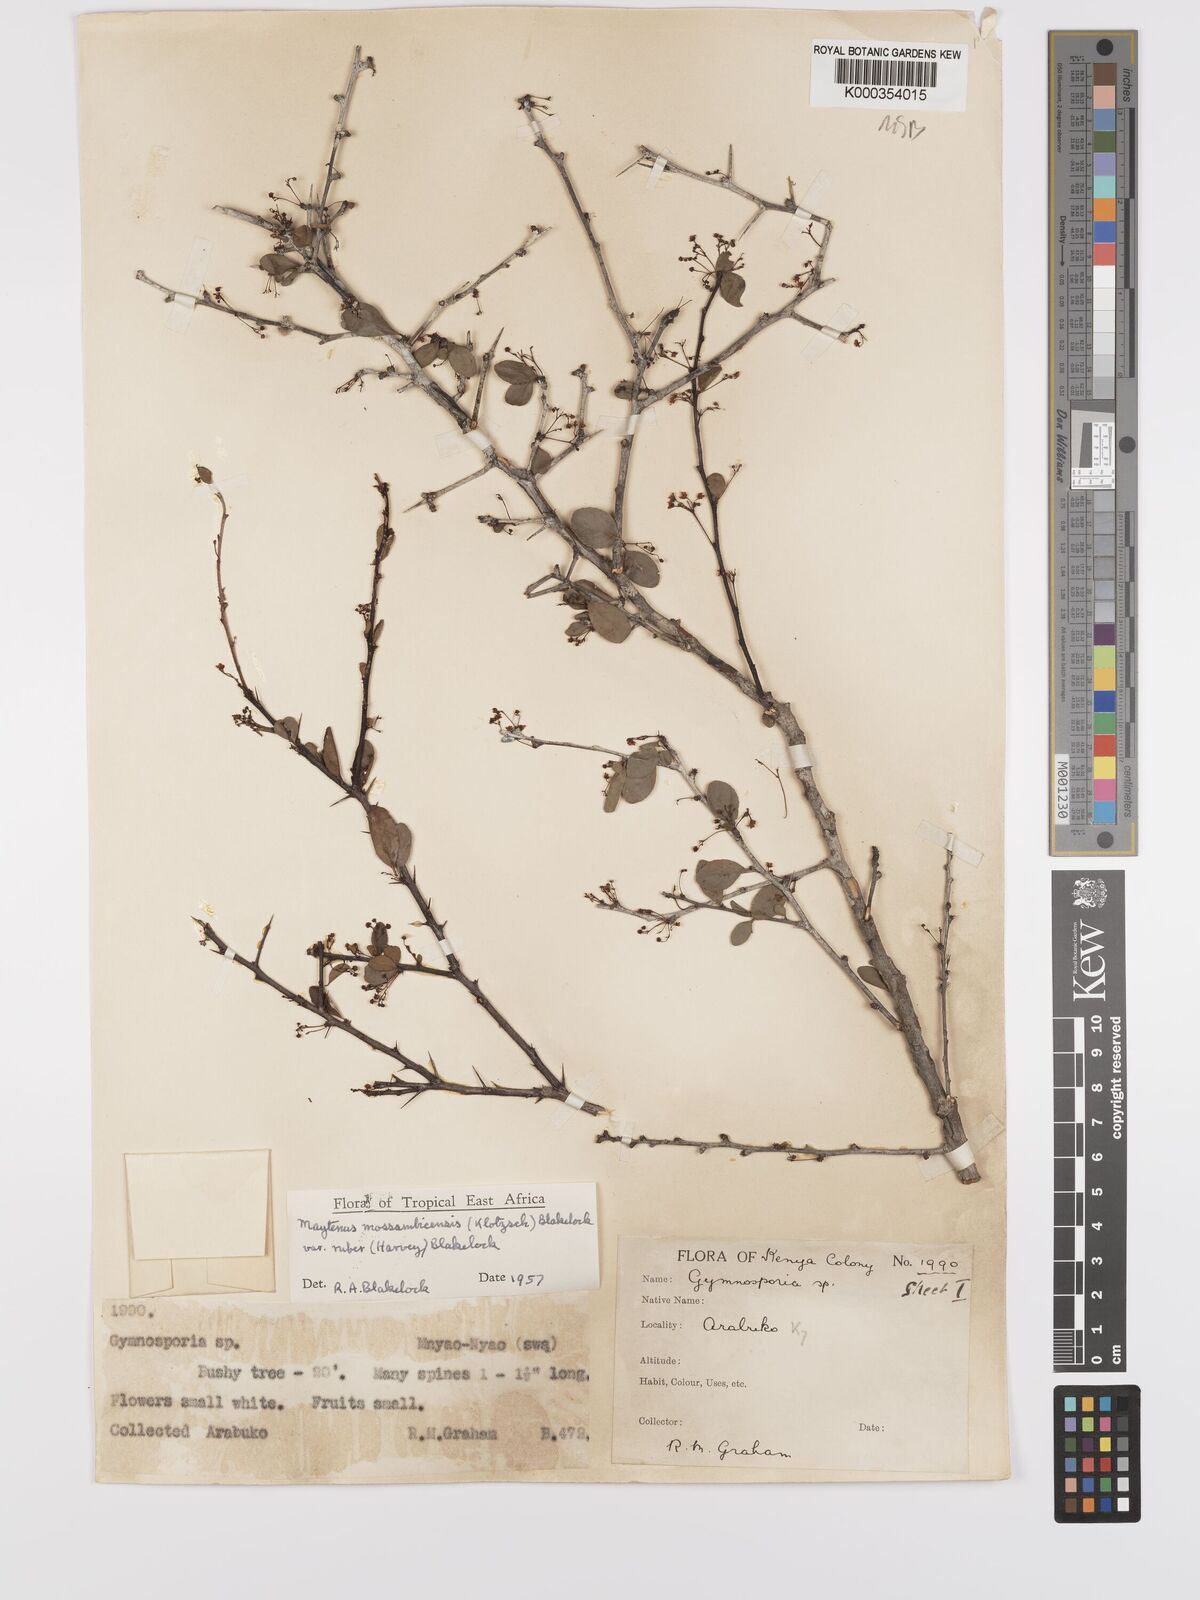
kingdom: Plantae
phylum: Tracheophyta
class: Magnoliopsida
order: Celastrales
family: Celastraceae
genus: Gymnosporia
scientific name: Gymnosporia mossambicensis
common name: Black forest spike-thorn
